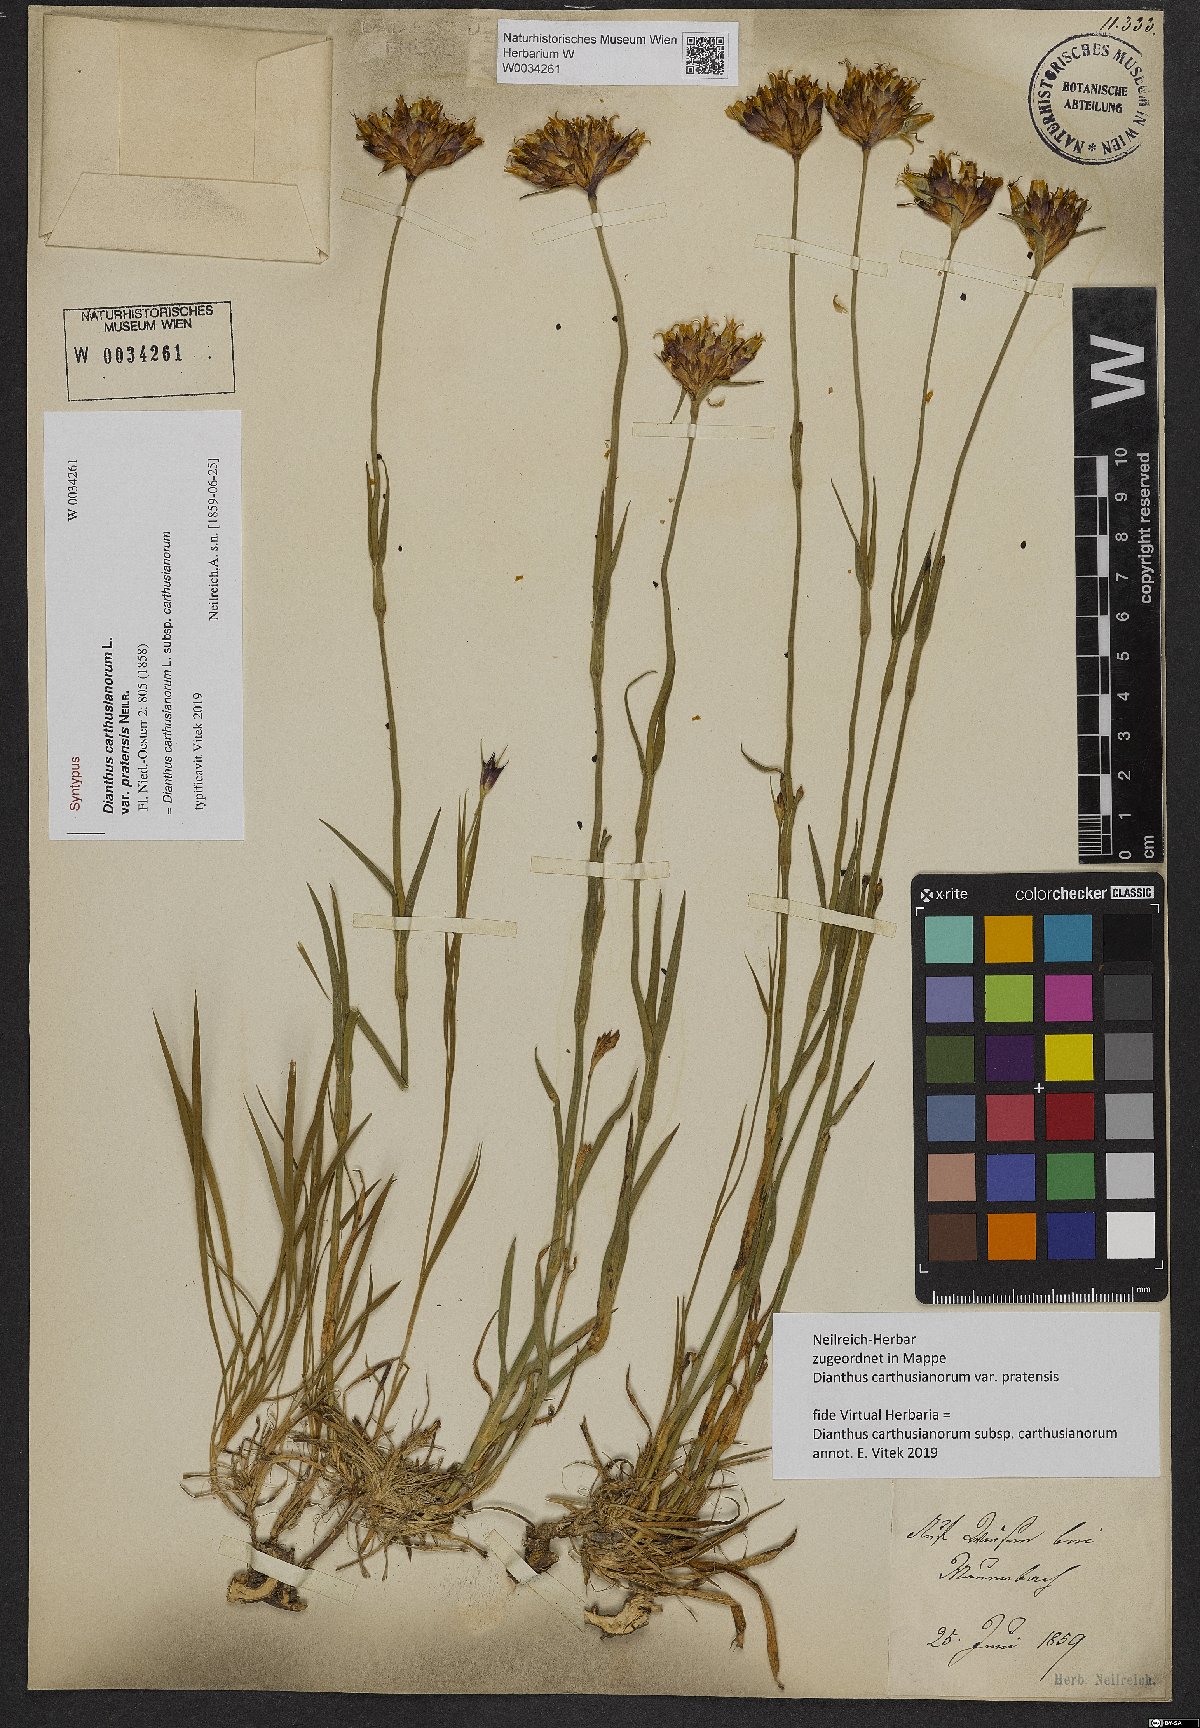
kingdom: Plantae
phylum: Tracheophyta
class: Magnoliopsida
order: Caryophyllales
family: Caryophyllaceae
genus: Dianthus
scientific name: Dianthus carthusianorum
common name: Carthusian pink
